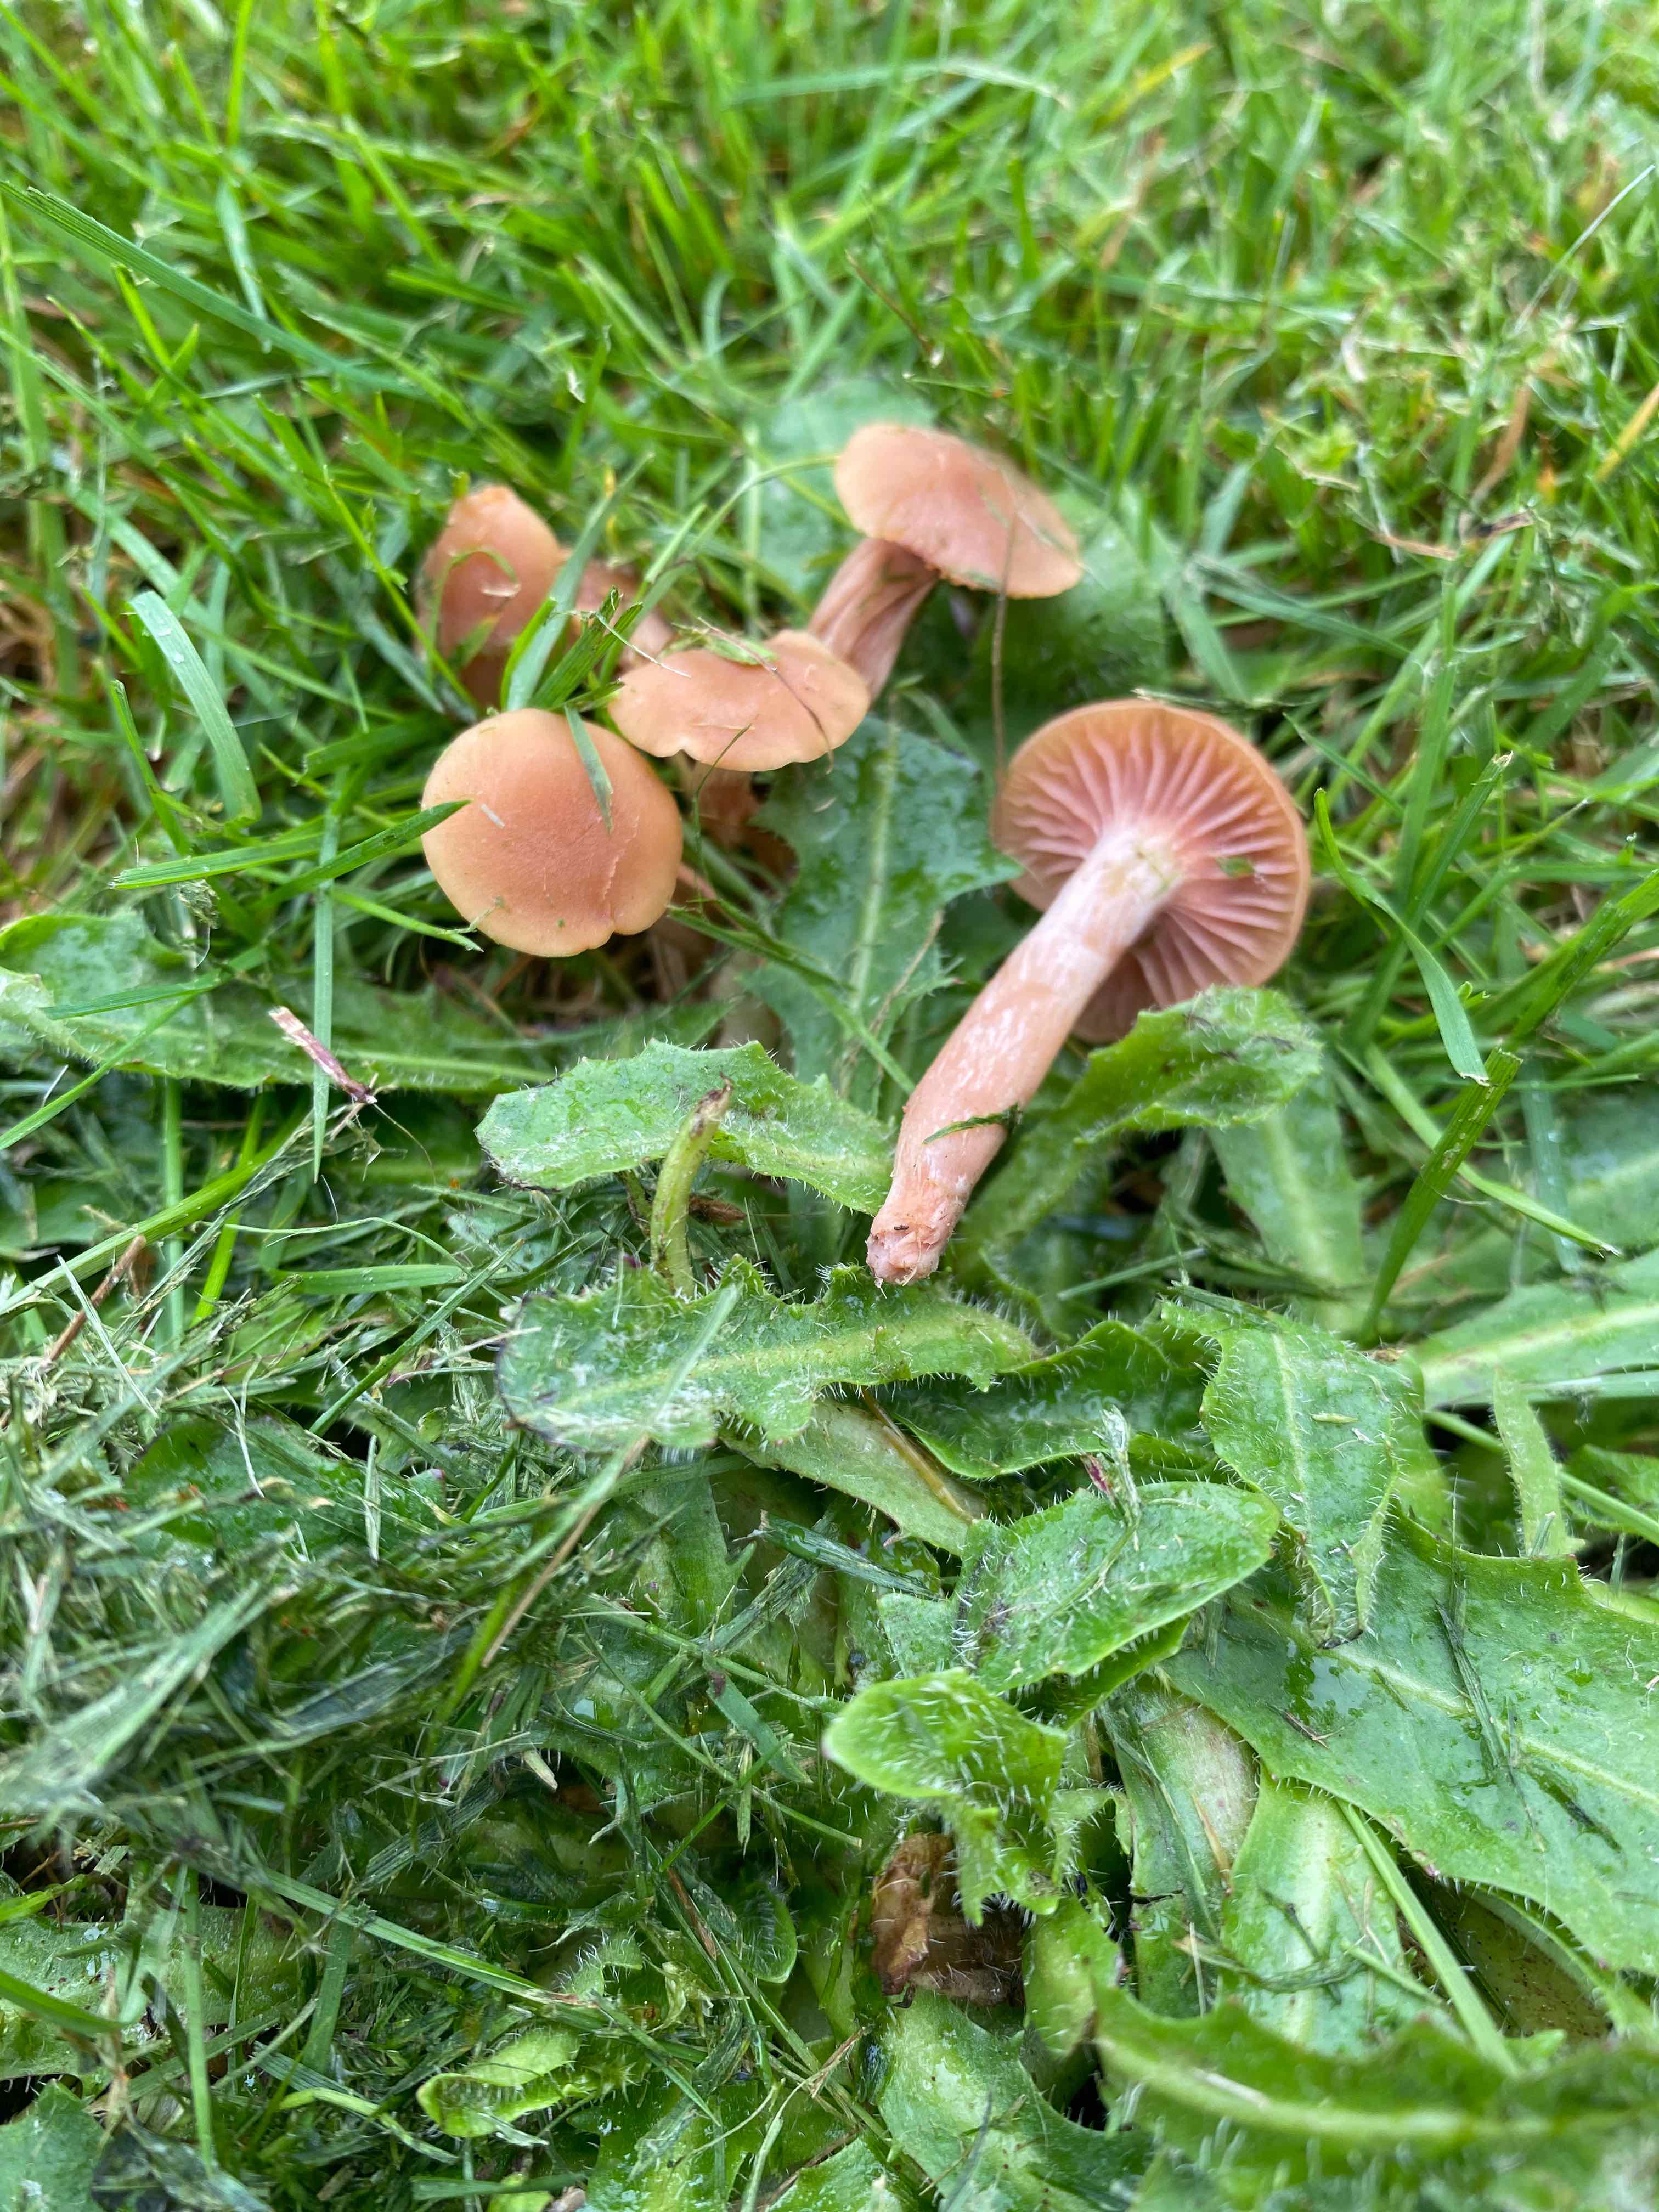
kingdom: Fungi
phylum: Basidiomycota
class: Agaricomycetes
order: Agaricales
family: Hydnangiaceae
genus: Laccaria
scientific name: Laccaria laccata
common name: rød ametysthat
